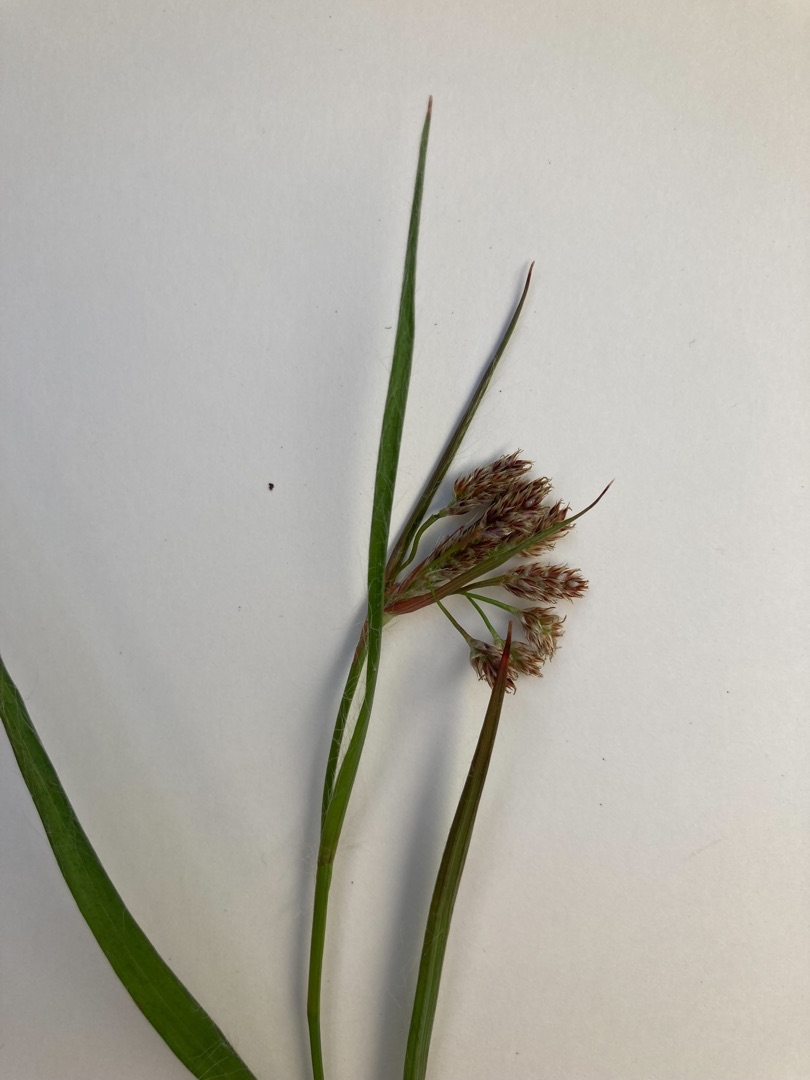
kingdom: Plantae
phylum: Tracheophyta
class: Liliopsida
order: Poales
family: Juncaceae
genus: Luzula
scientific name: Luzula multiflora
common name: Mangeblomstret frytle
